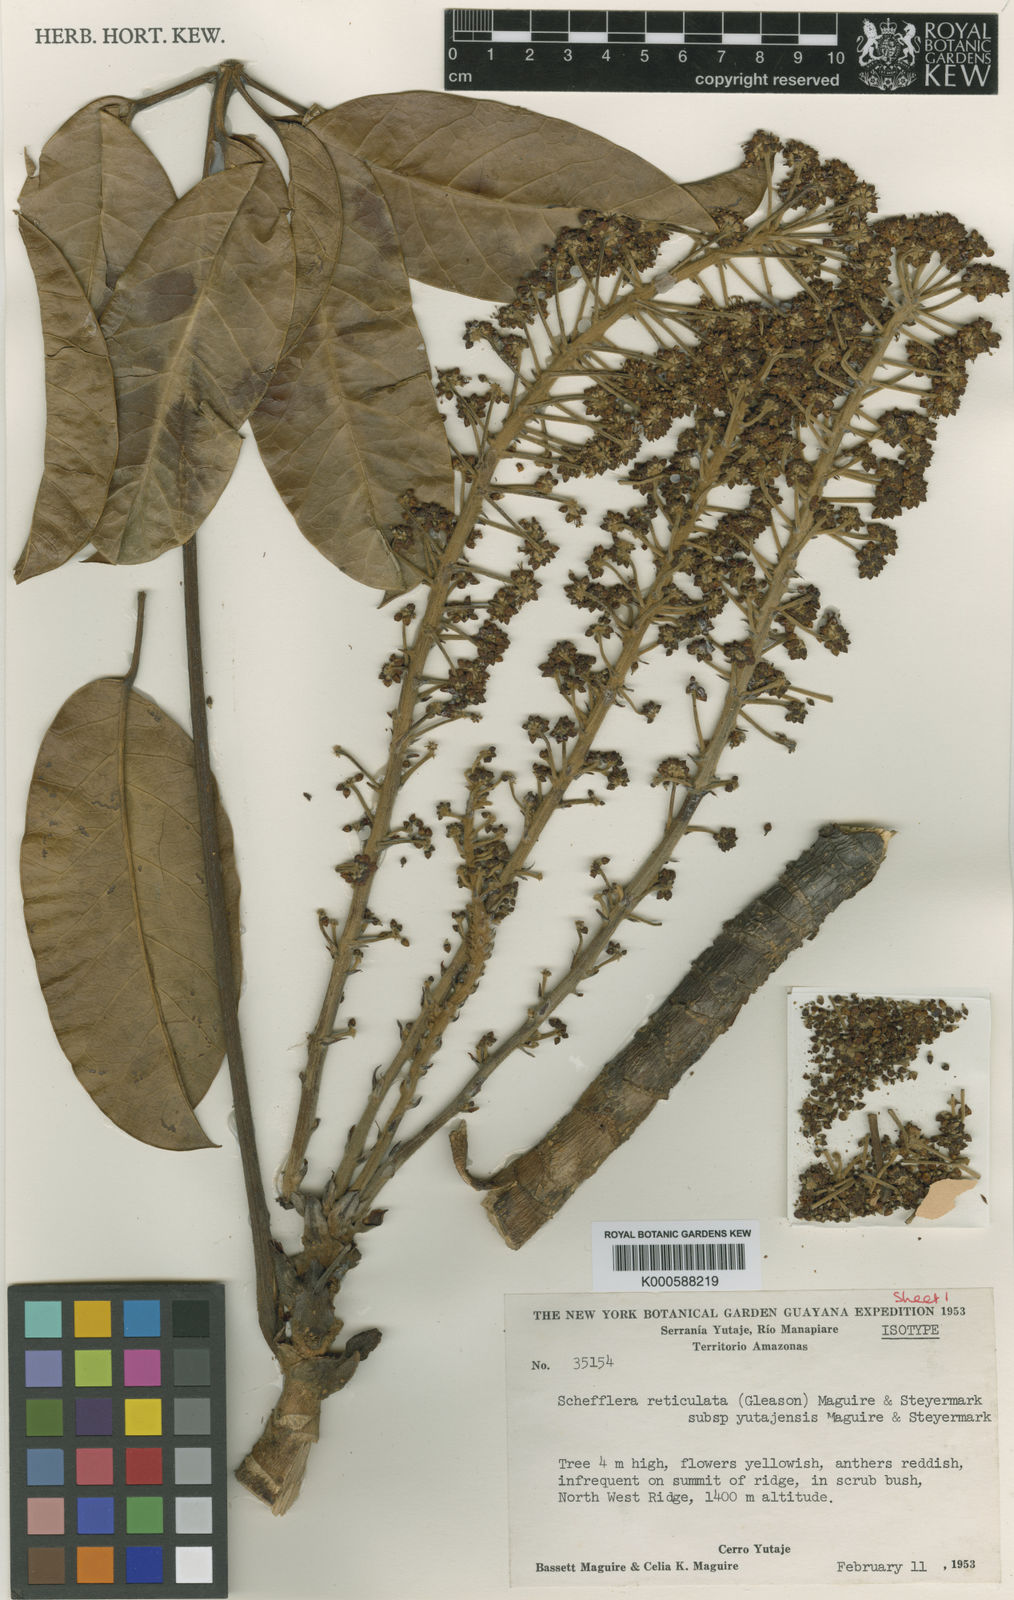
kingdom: Plantae
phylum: Tracheophyta
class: Magnoliopsida
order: Apiales
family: Araliaceae
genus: Schefflera
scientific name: Schefflera
